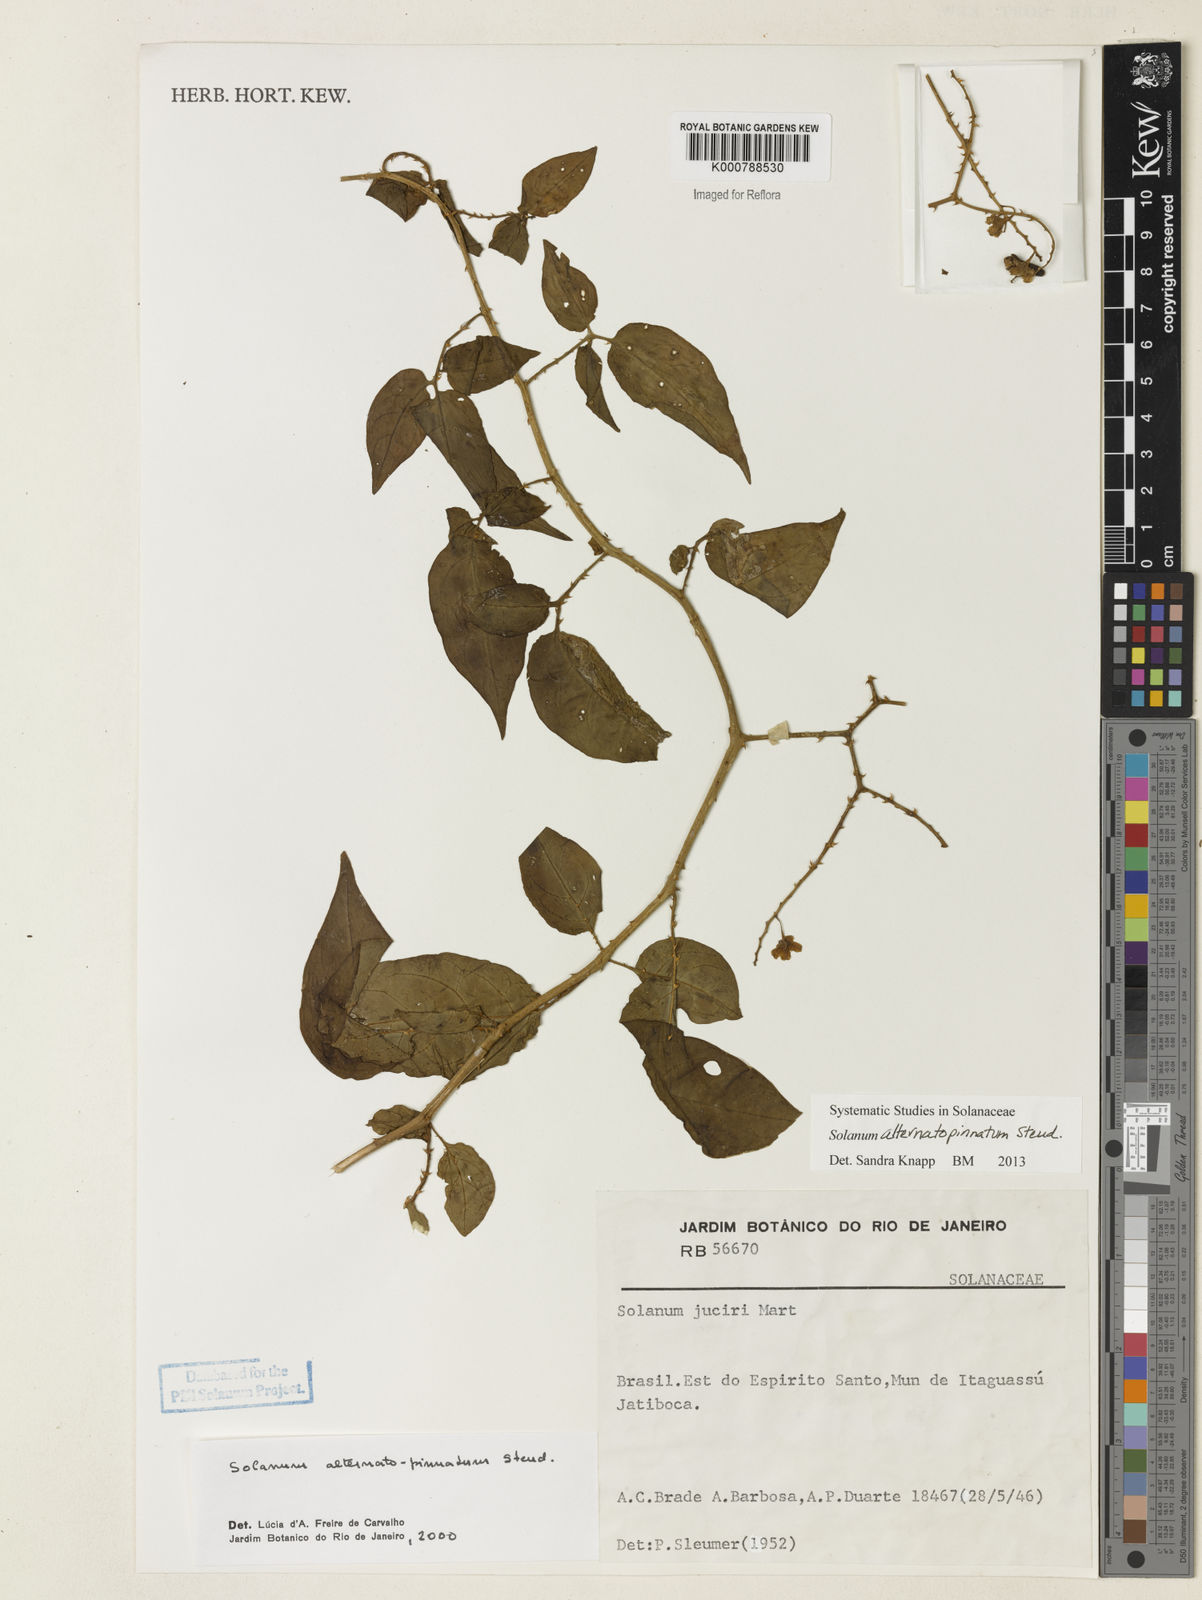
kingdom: Plantae
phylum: Tracheophyta
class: Magnoliopsida
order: Solanales
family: Solanaceae
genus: Solanum
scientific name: Solanum alternatopinnatum
